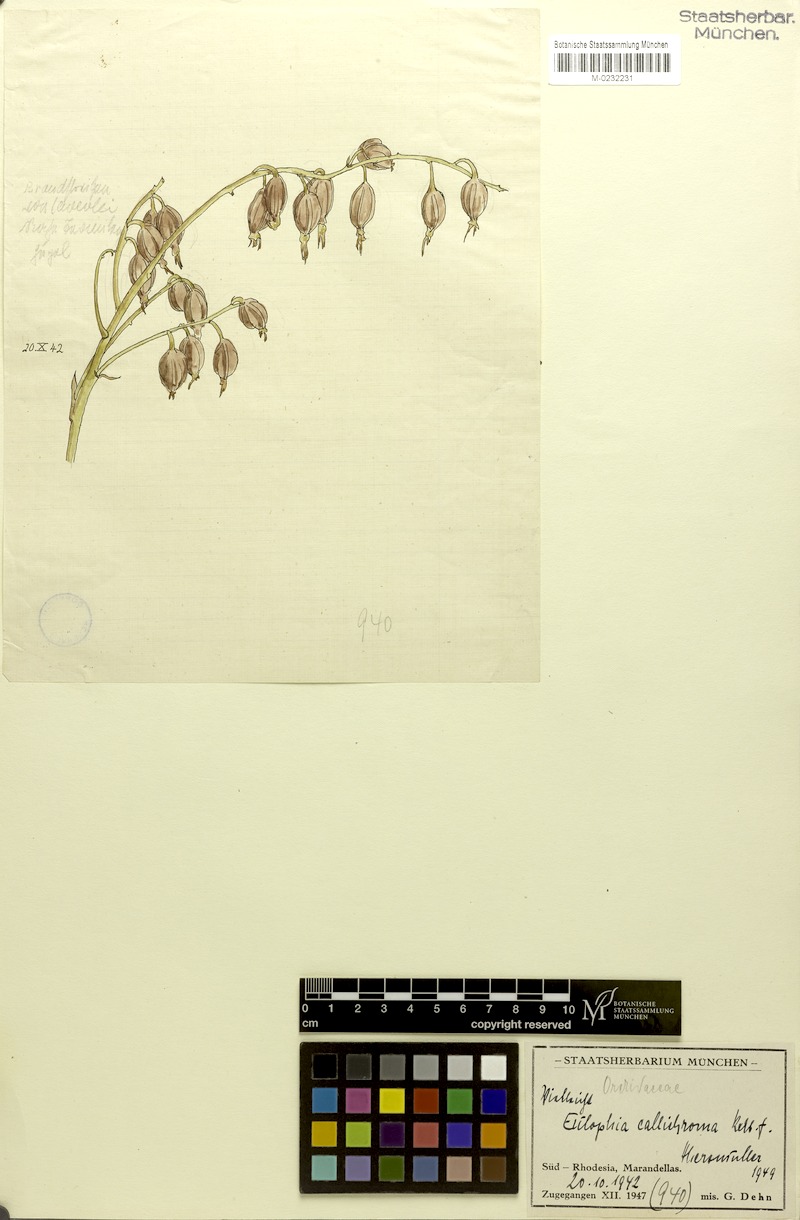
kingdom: Plantae
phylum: Tracheophyta
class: Liliopsida
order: Asparagales
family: Orchidaceae
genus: Eulophia
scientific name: Eulophia callichroma
